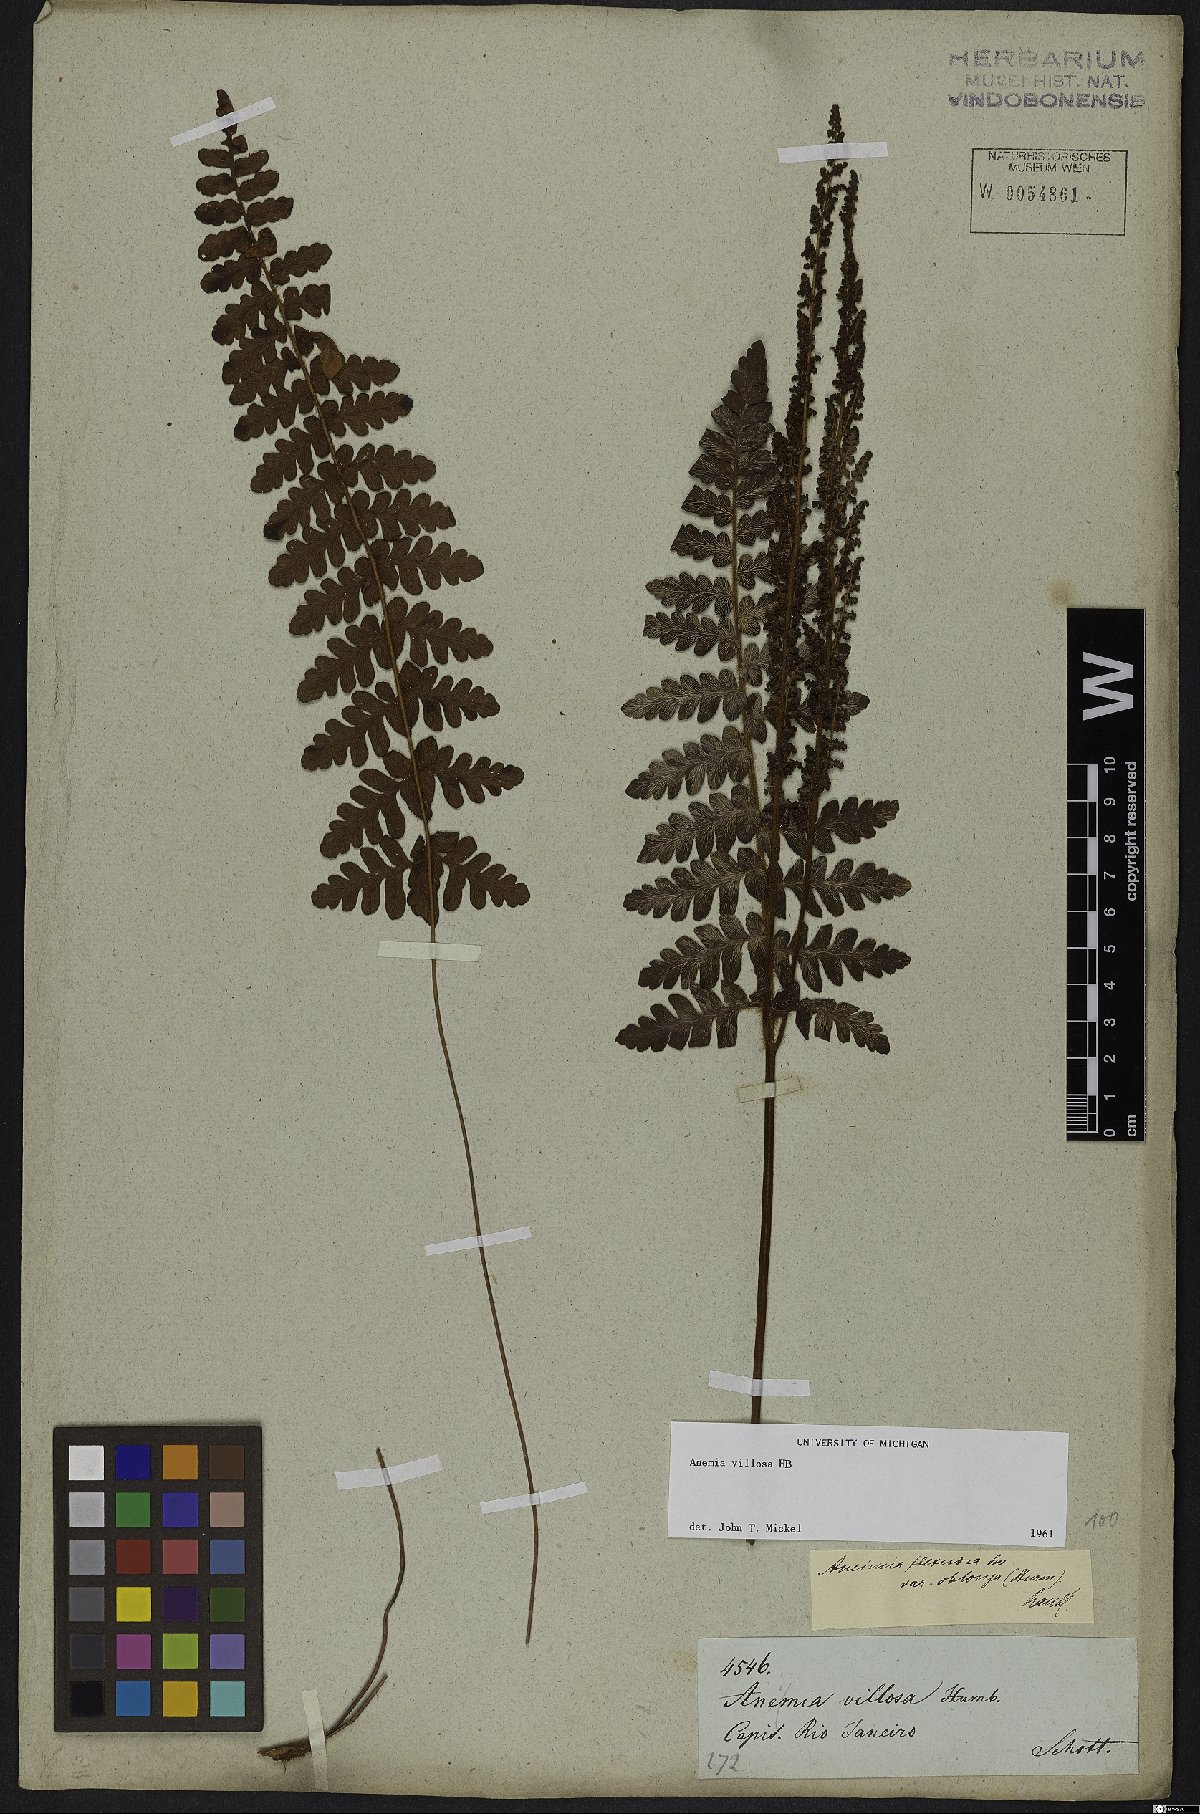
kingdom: Plantae
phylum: Tracheophyta
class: Polypodiopsida
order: Schizaeales
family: Anemiaceae
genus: Anemia
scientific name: Anemia villosa
